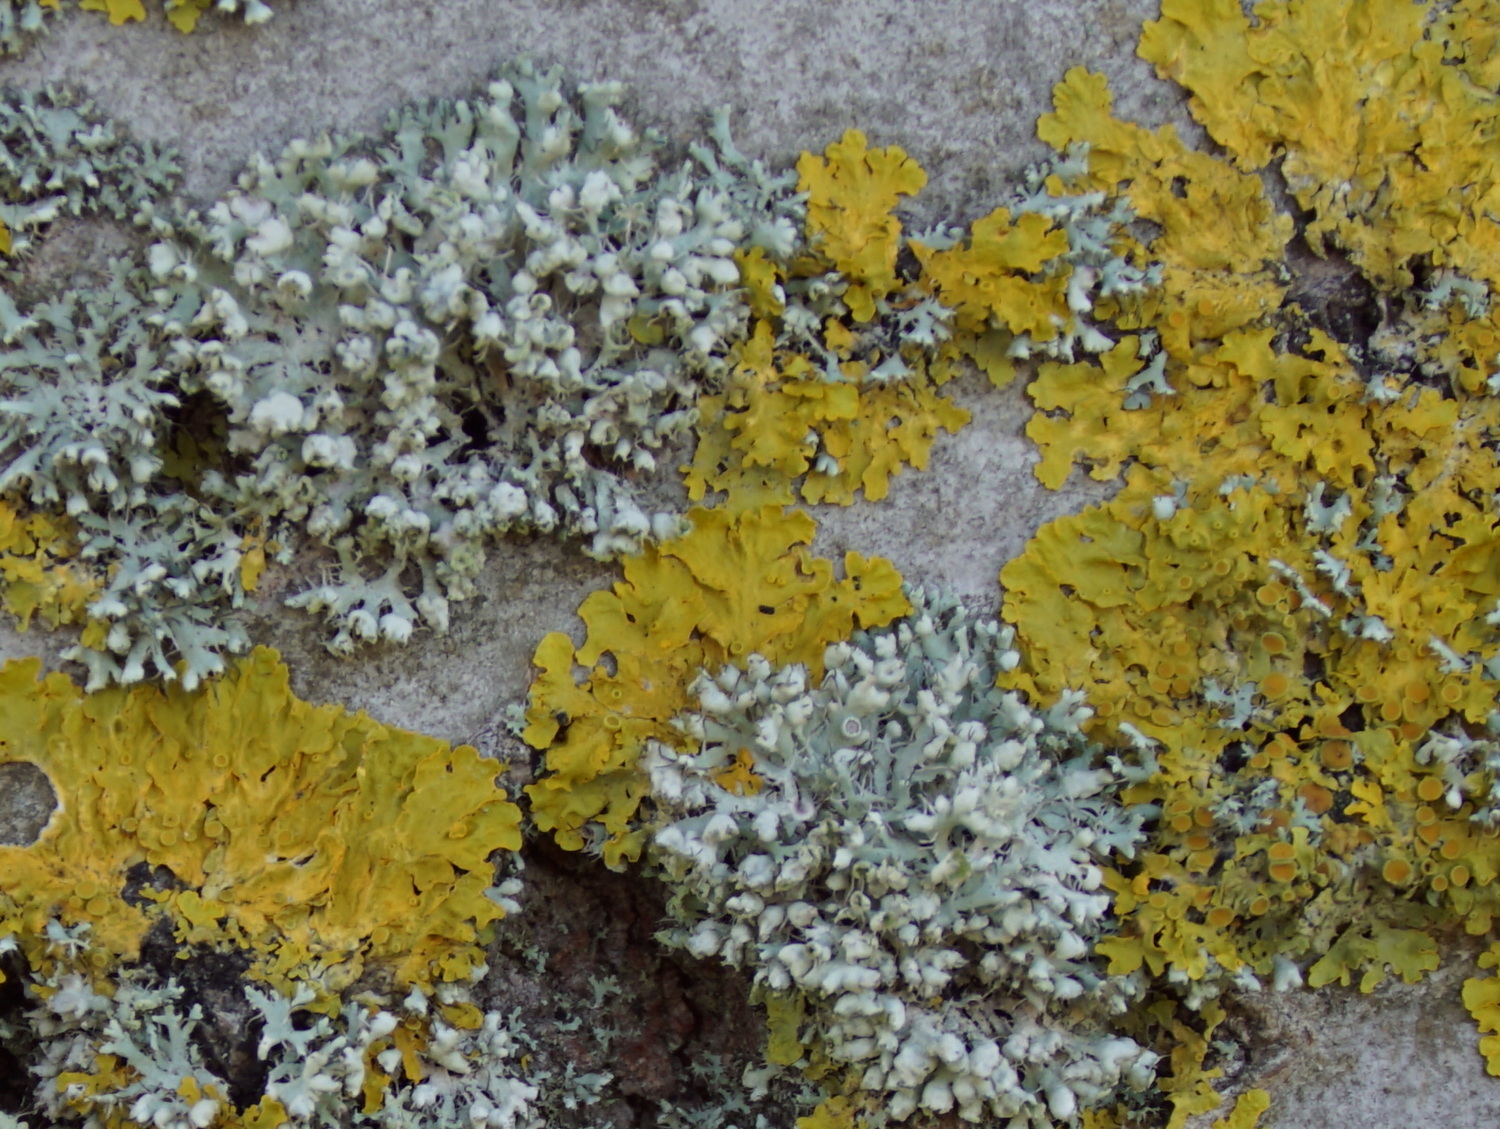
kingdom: Fungi
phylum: Ascomycota
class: Lecanoromycetes
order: Caliciales
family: Physciaceae
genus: Physcia
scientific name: Physcia adscendens
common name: hætte-rosetlav
